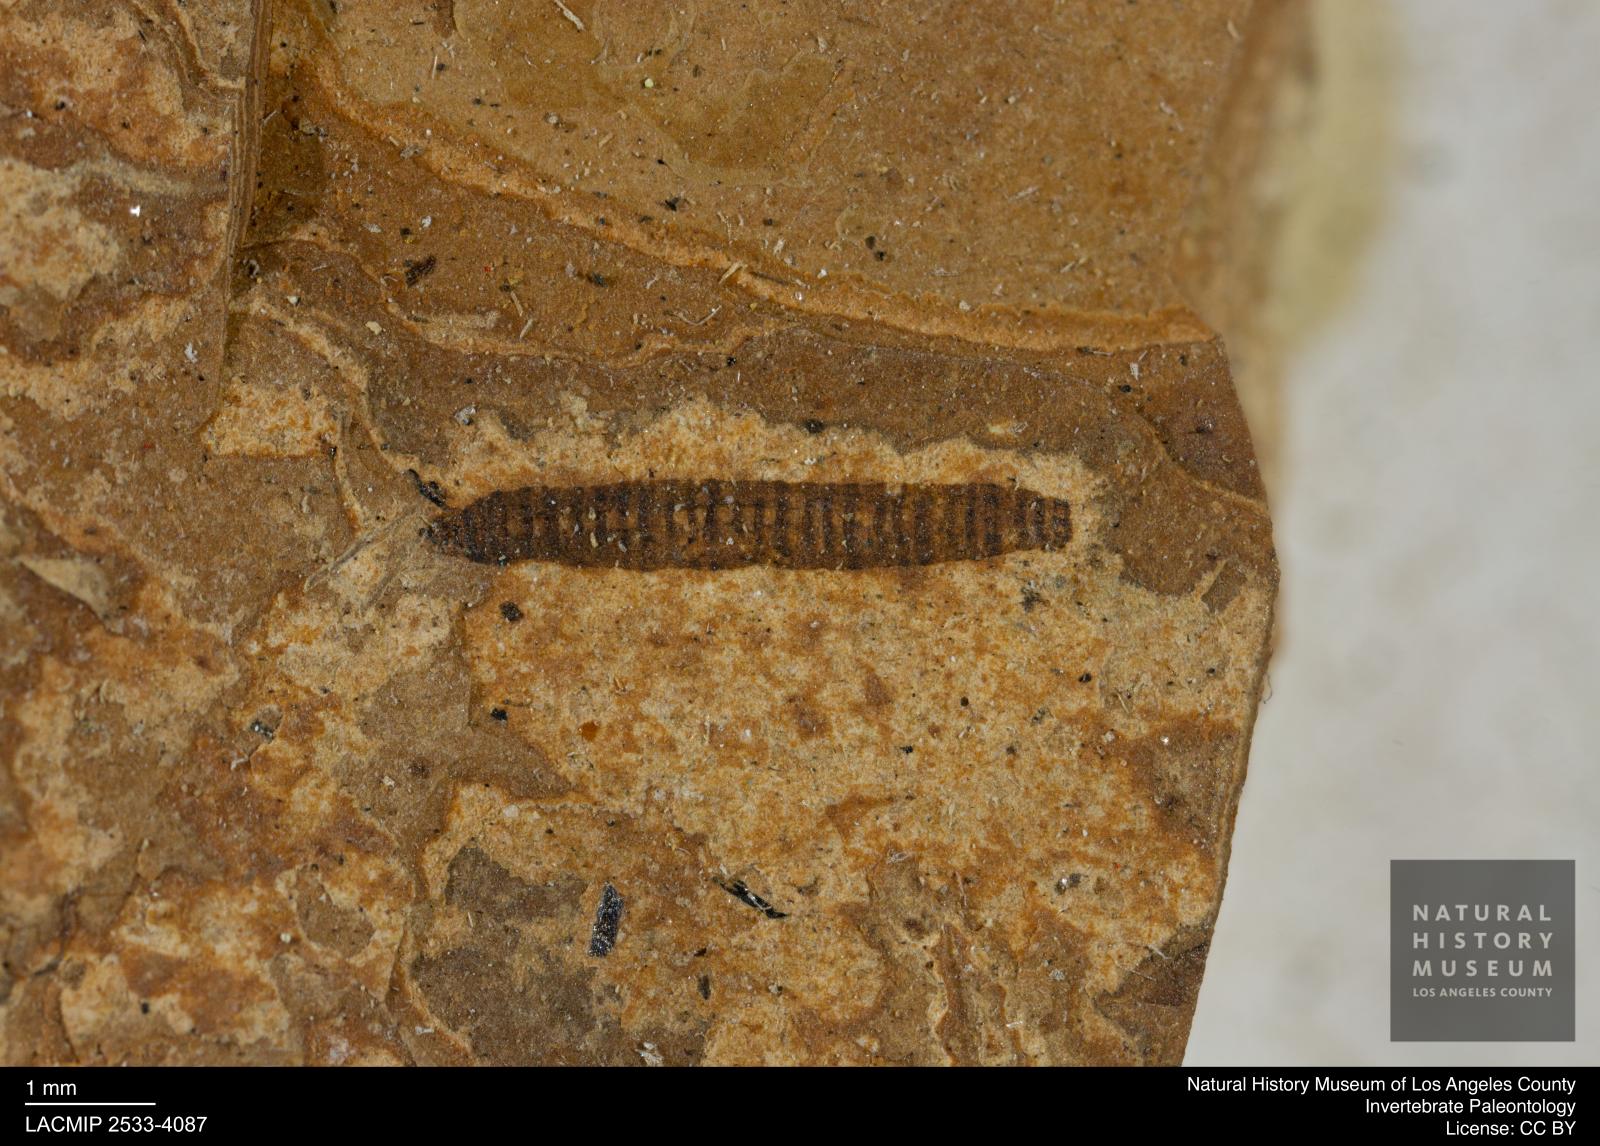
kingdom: Animalia
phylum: Arthropoda
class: Insecta
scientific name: Insecta
